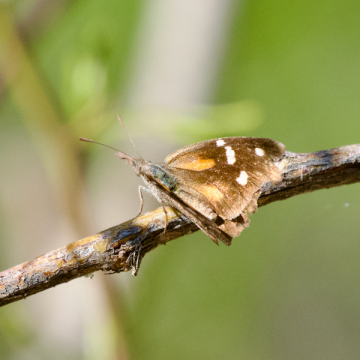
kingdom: Animalia
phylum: Arthropoda
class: Insecta
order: Lepidoptera
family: Nymphalidae
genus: Libytheana
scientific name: Libytheana carinenta
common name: American Snout
